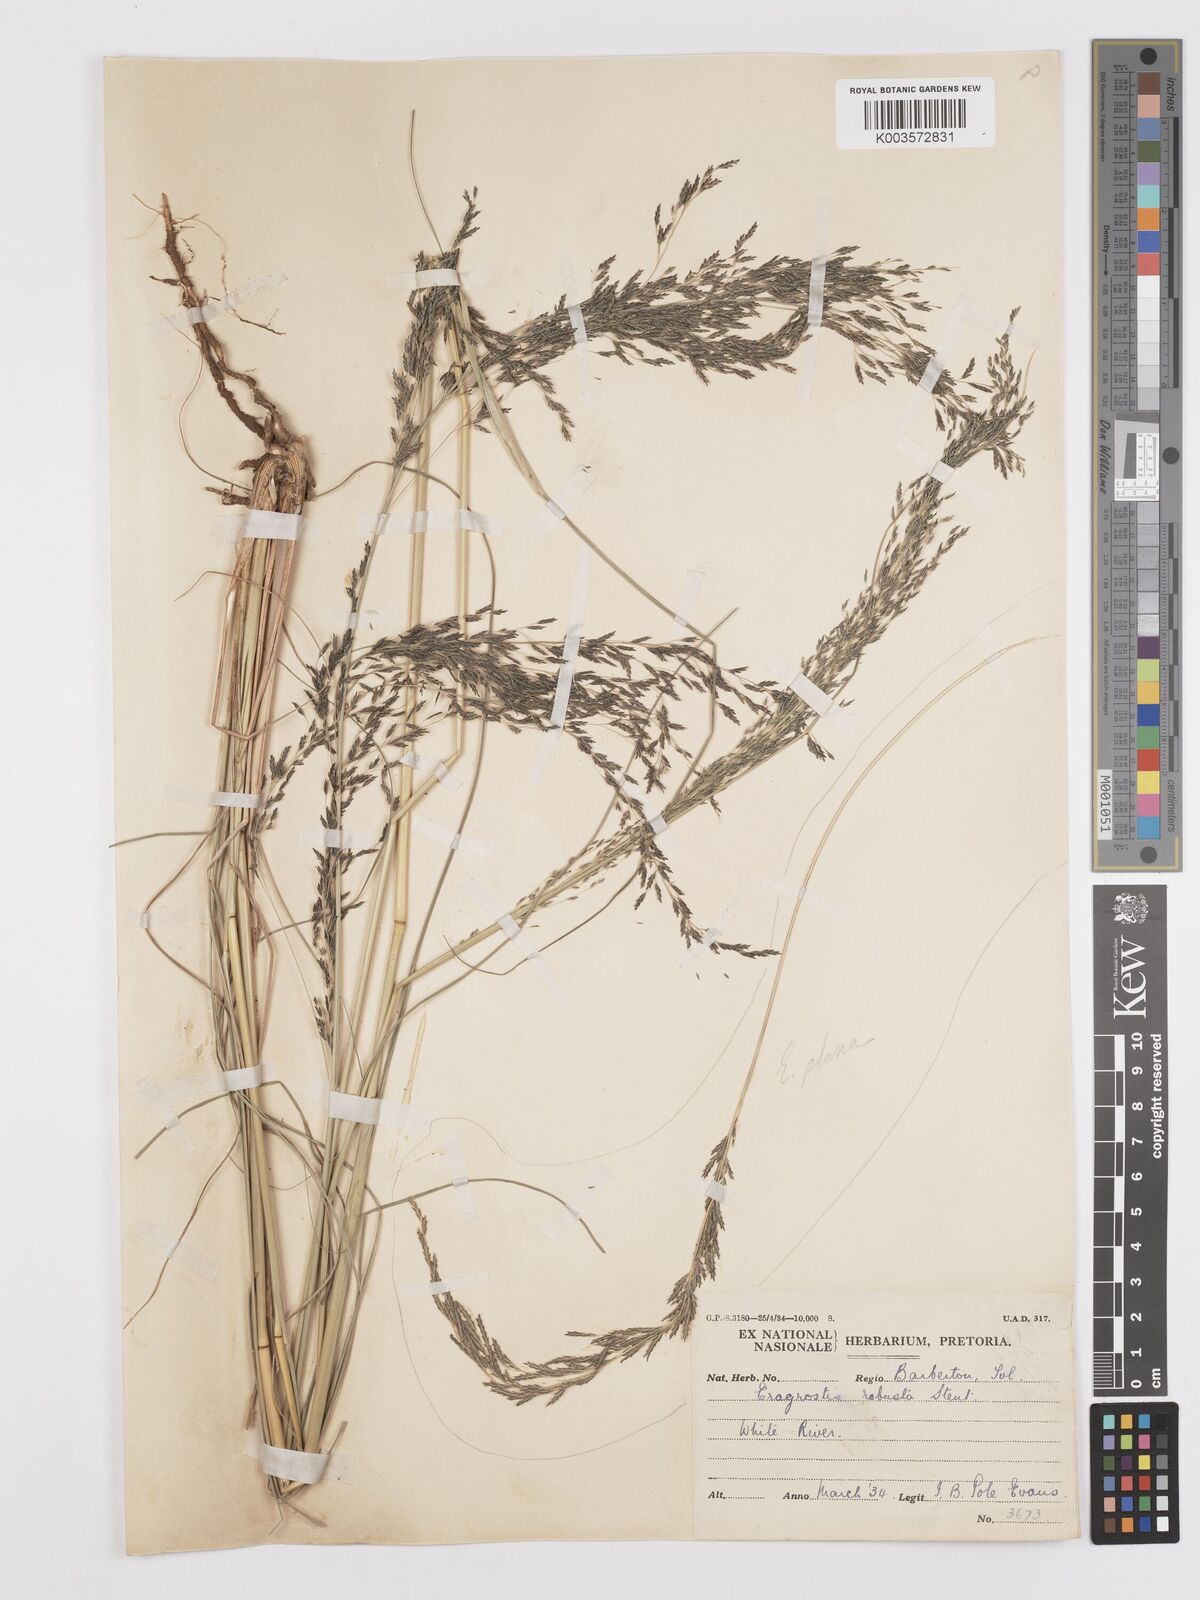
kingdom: Plantae
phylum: Tracheophyta
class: Liliopsida
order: Poales
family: Poaceae
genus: Eragrostis
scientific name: Eragrostis curvula
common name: African love-grass
